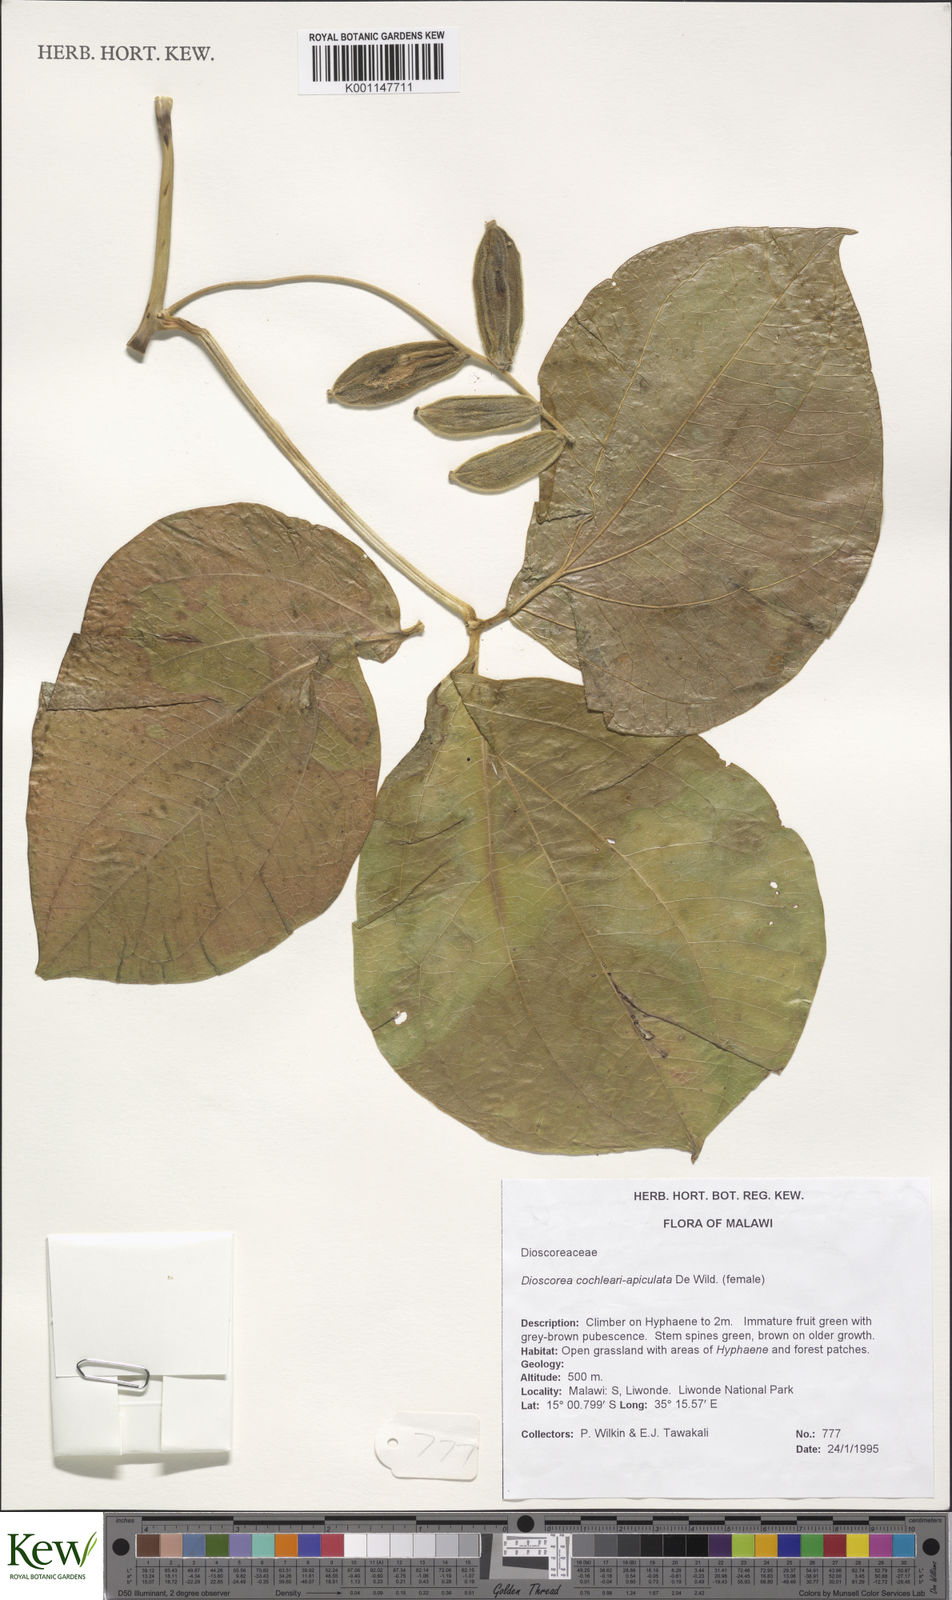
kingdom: Plantae
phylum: Tracheophyta
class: Liliopsida
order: Dioscoreales
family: Dioscoreaceae
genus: Dioscorea
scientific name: Dioscorea cochleariapiculata
